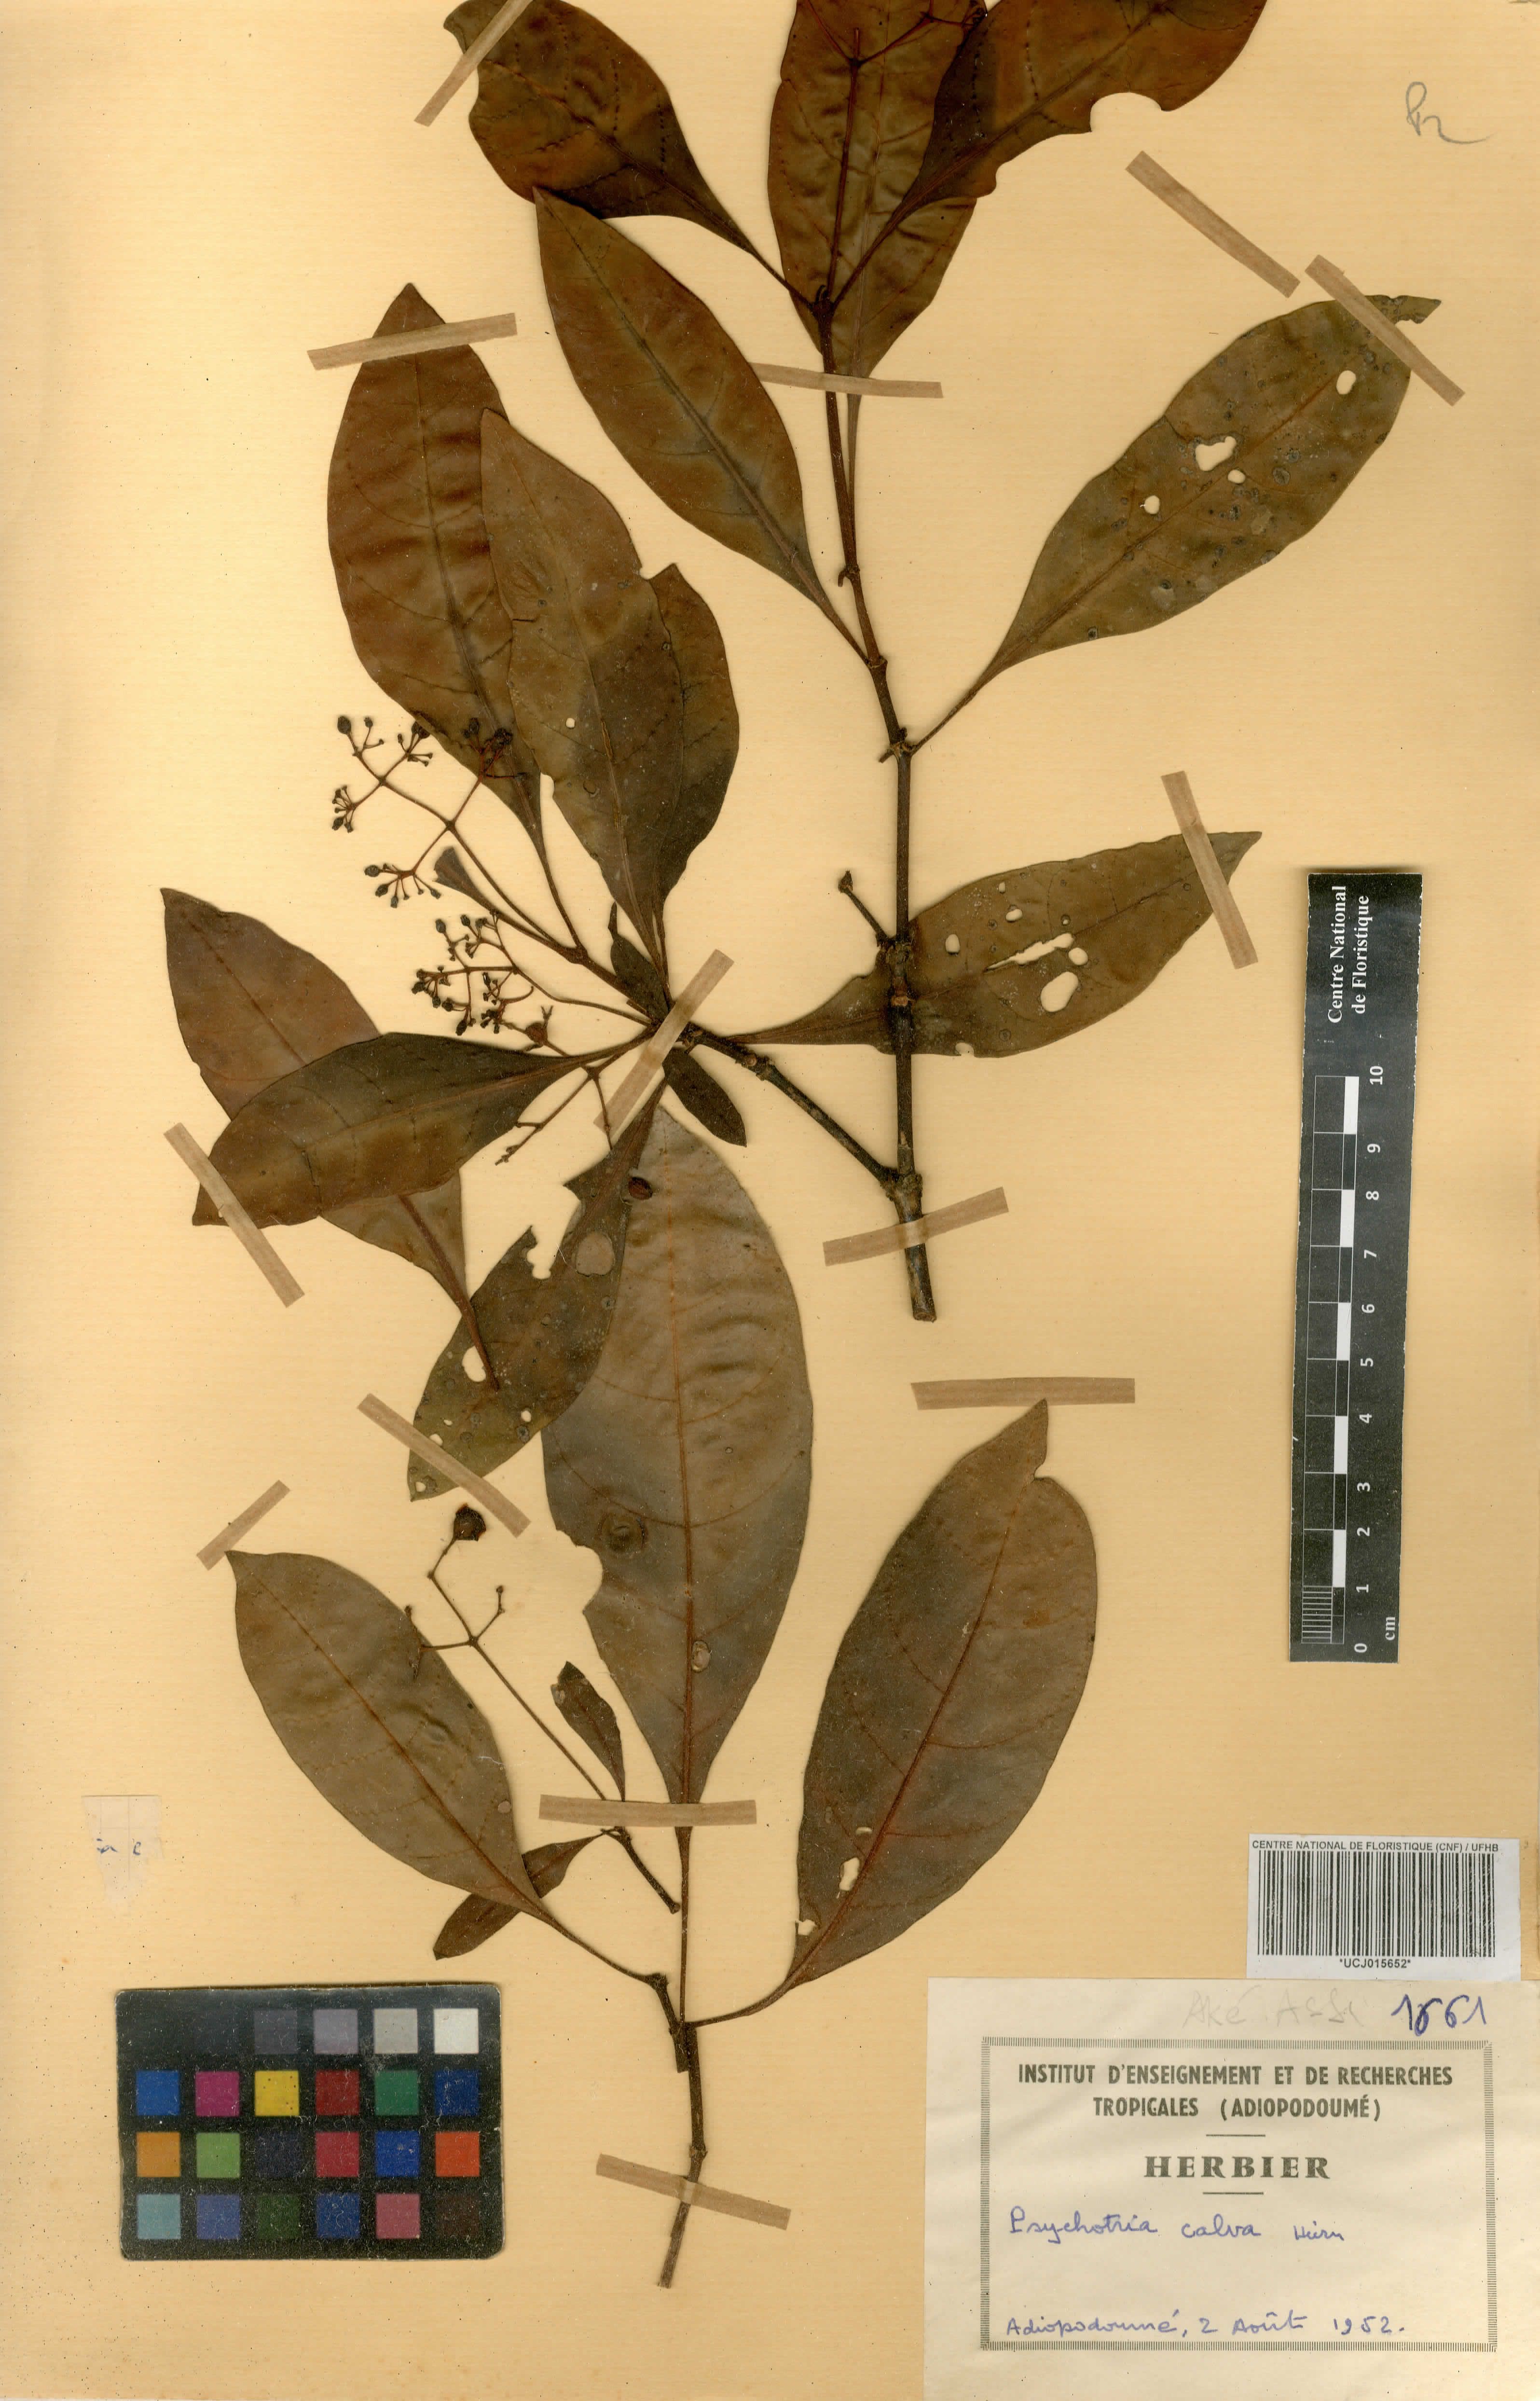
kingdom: Plantae
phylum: Tracheophyta
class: Magnoliopsida
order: Gentianales
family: Rubiaceae
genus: Psychotria
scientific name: Psychotria calva
